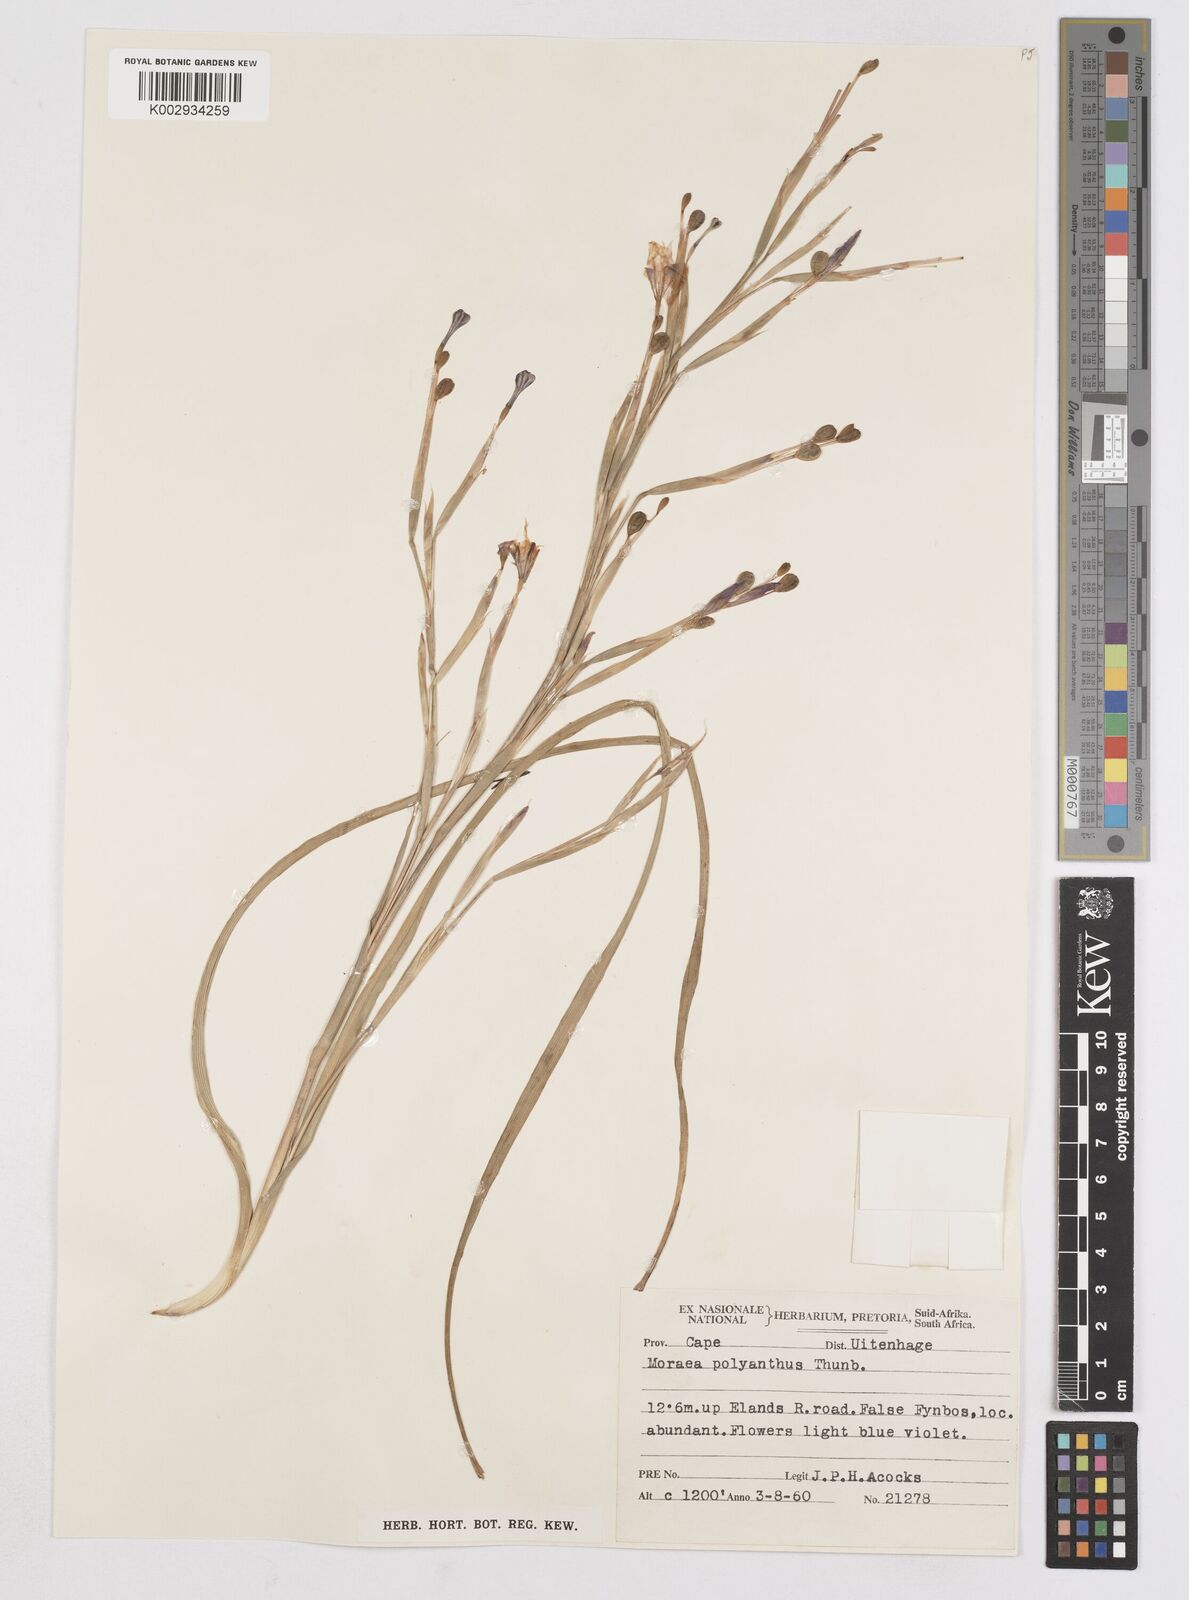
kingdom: Plantae
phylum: Tracheophyta
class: Liliopsida
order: Asparagales
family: Iridaceae
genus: Moraea
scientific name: Moraea bipartita
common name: Blue tulp
